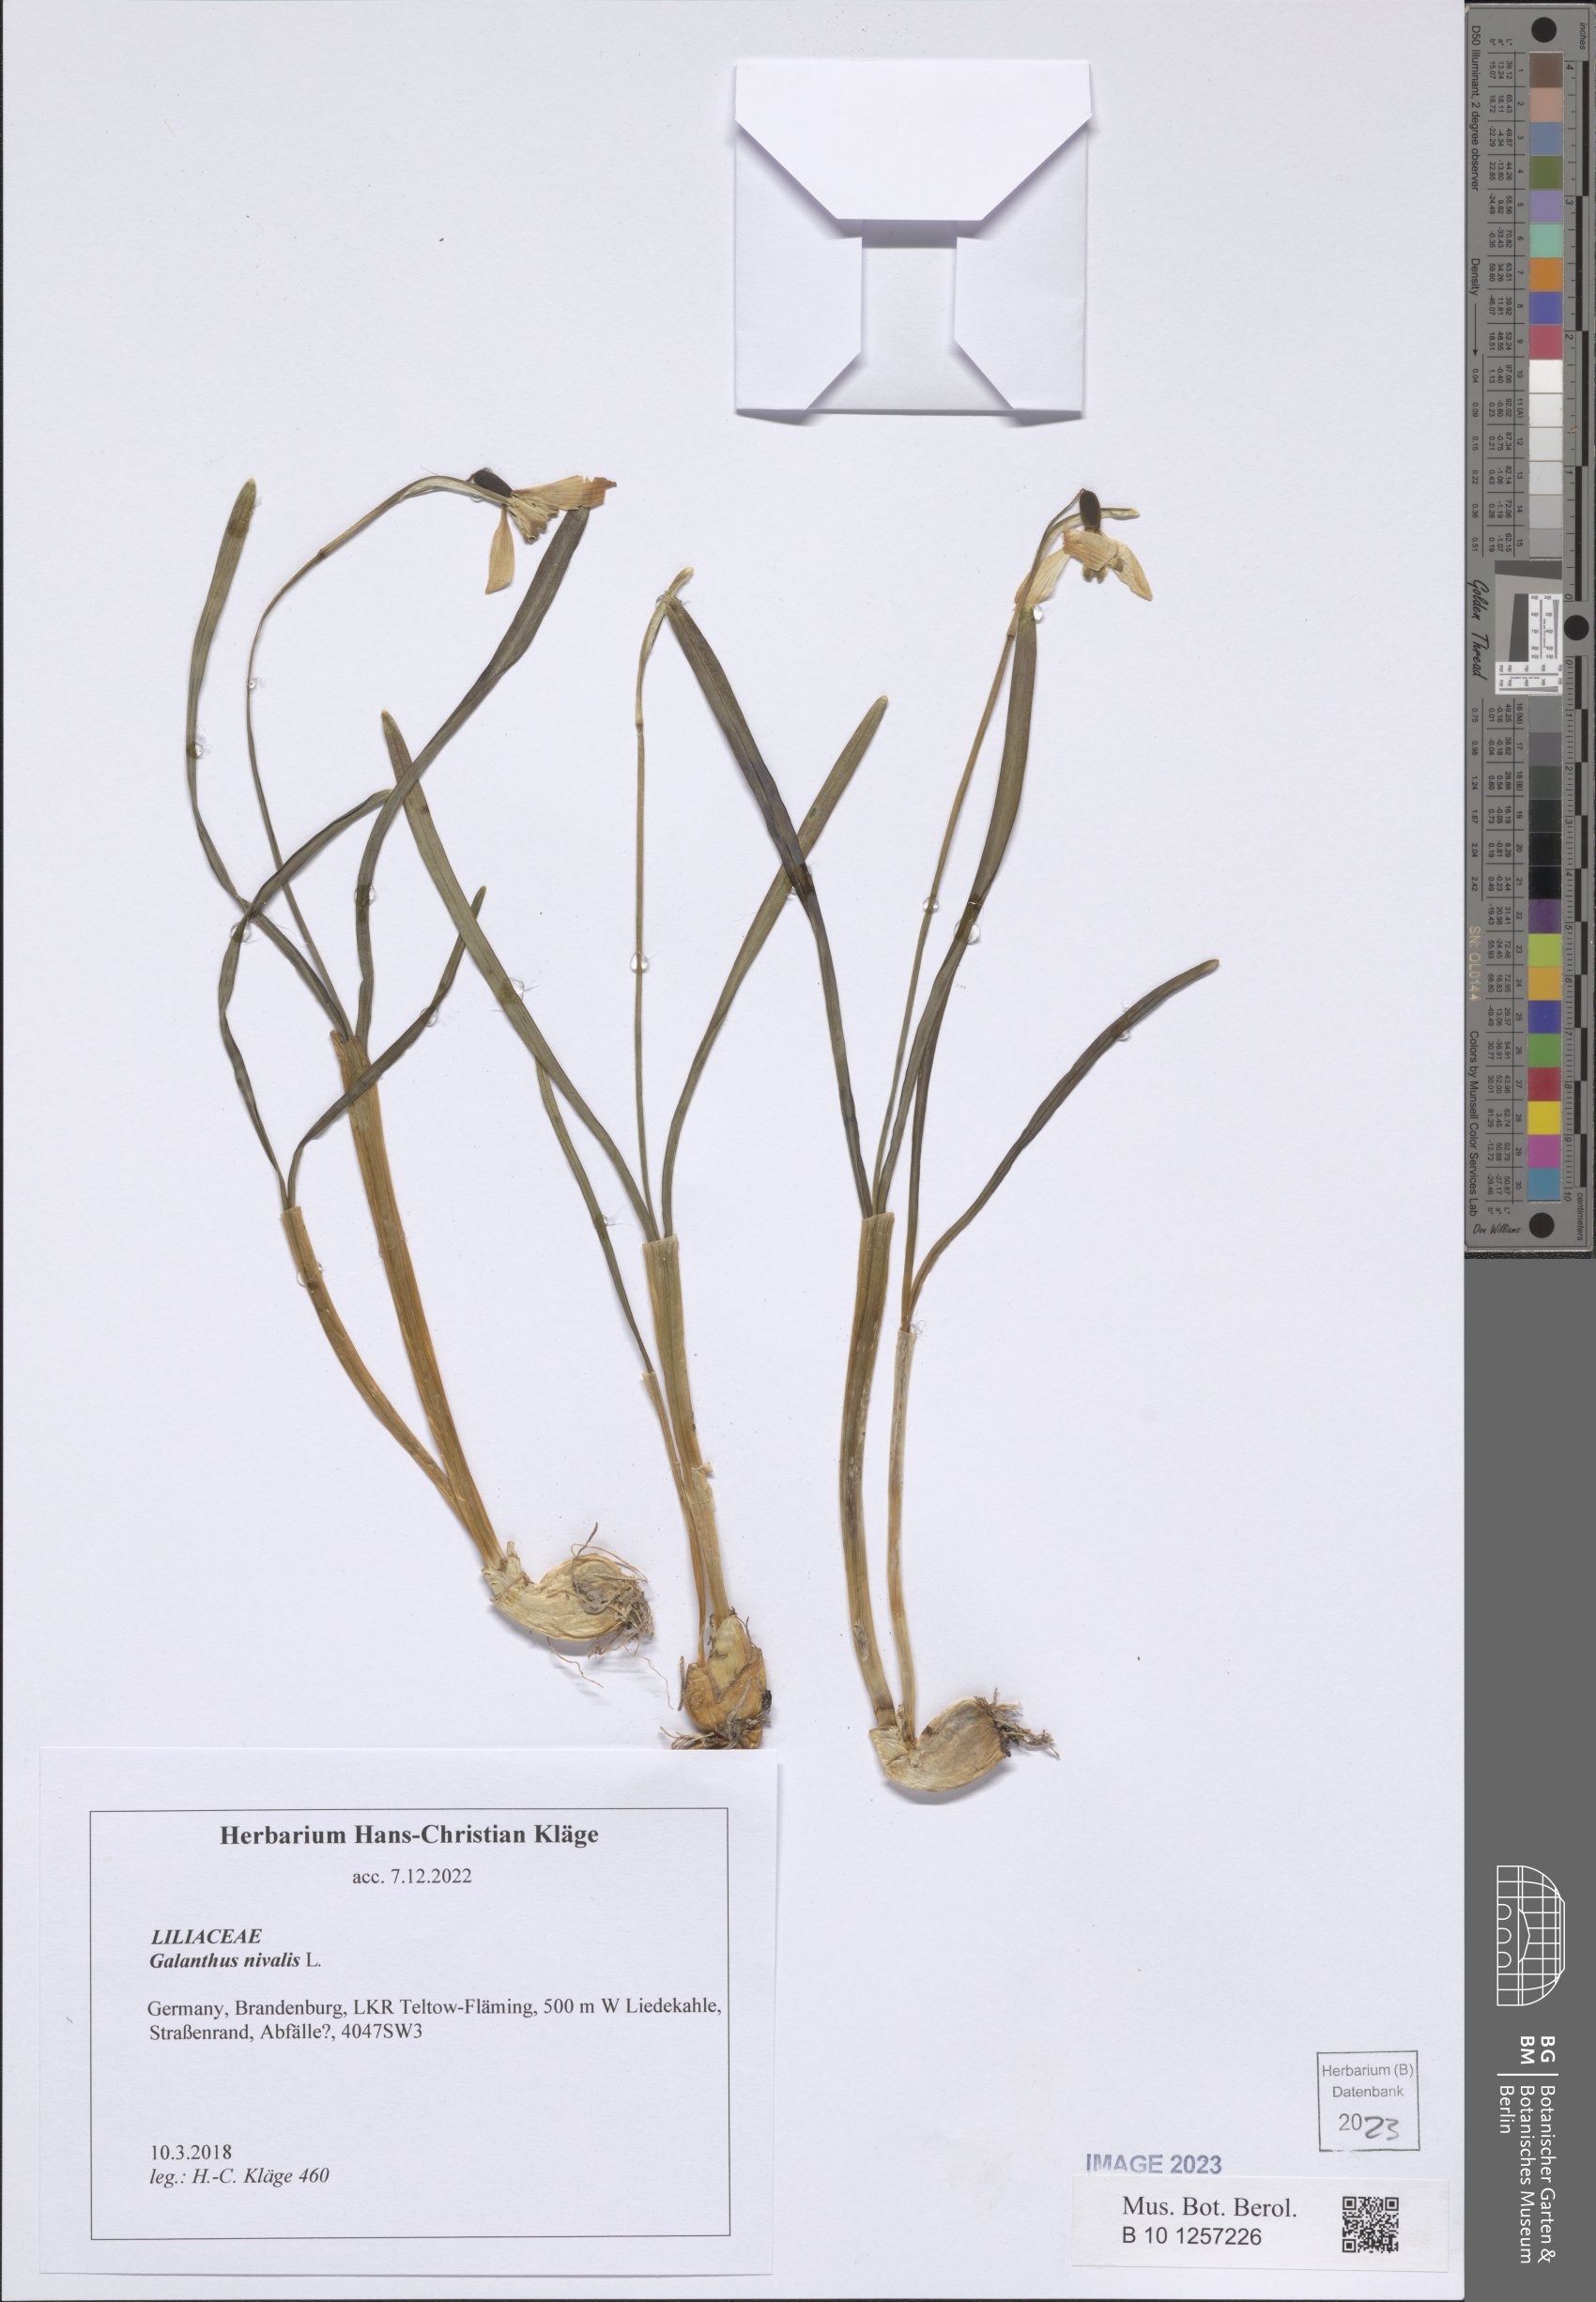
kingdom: Plantae
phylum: Tracheophyta
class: Liliopsida
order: Asparagales
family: Amaryllidaceae
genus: Galanthus
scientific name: Galanthus nivalis
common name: Snowdrop
